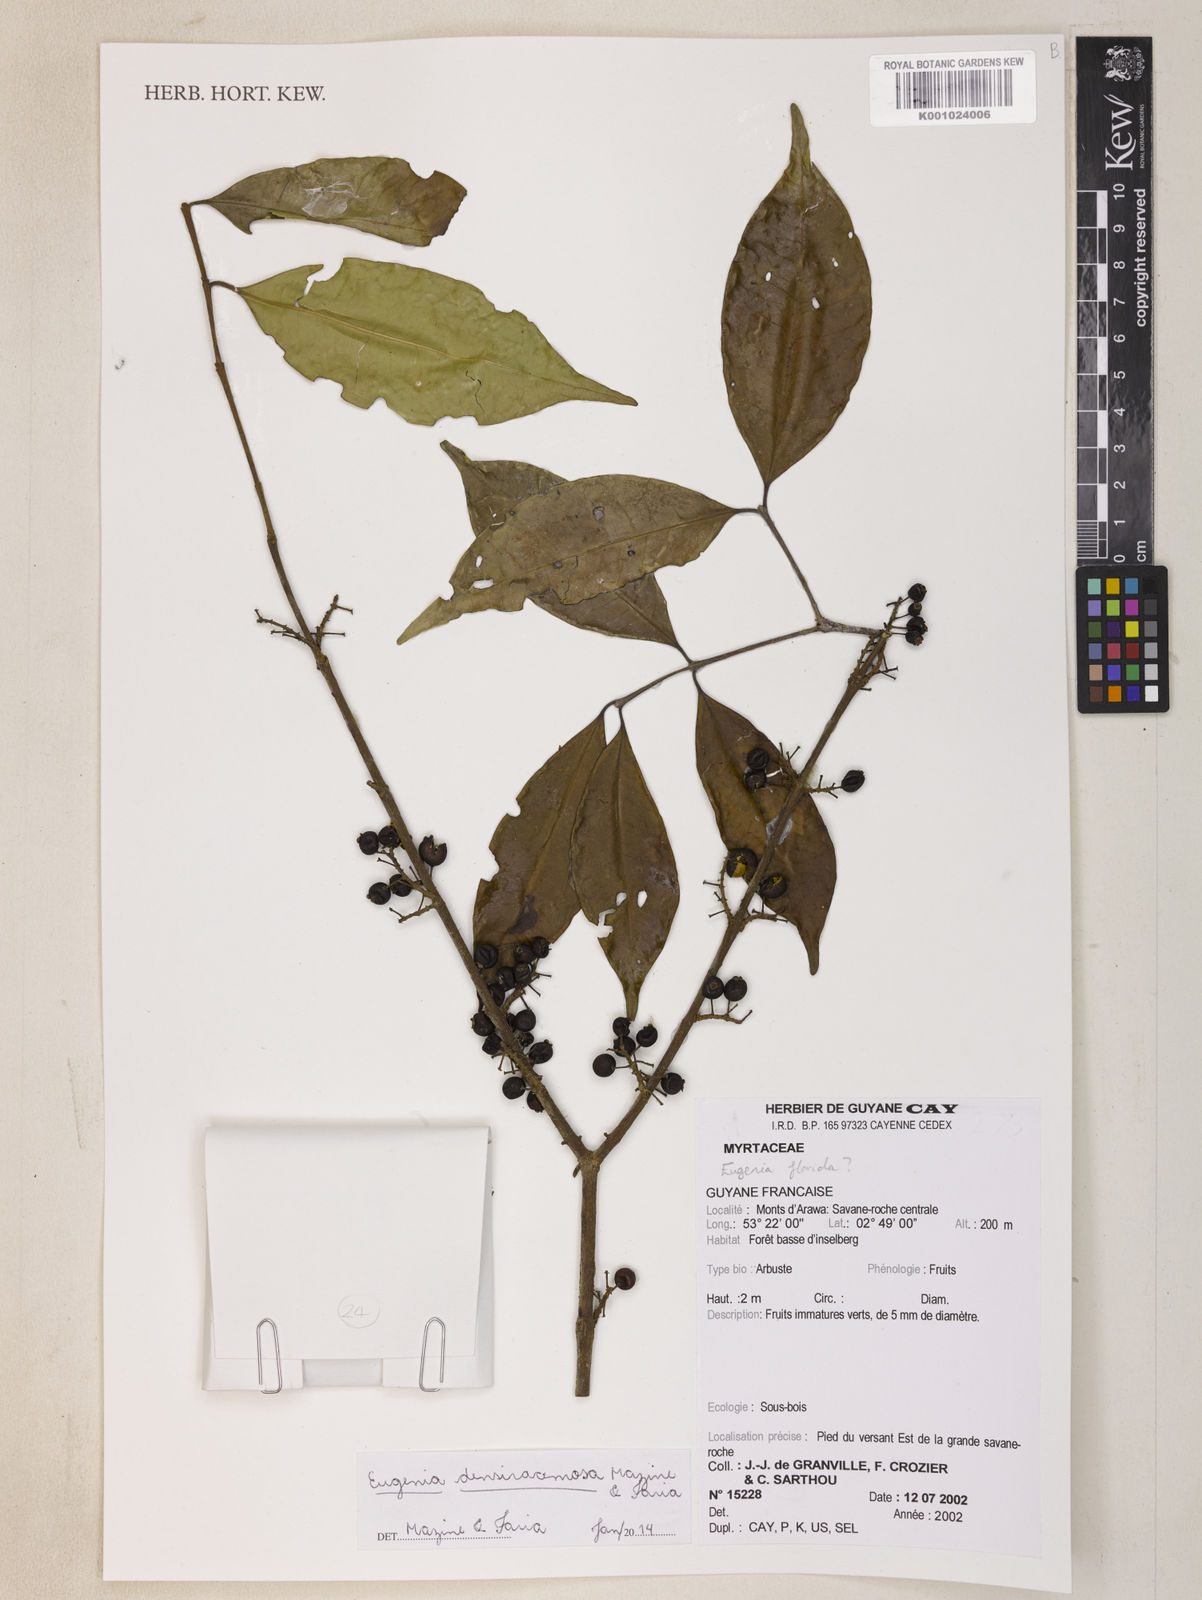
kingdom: Plantae
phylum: Tracheophyta
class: Magnoliopsida
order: Myrtales
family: Myrtaceae
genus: Eugenia
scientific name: Eugenia densiracemosa
